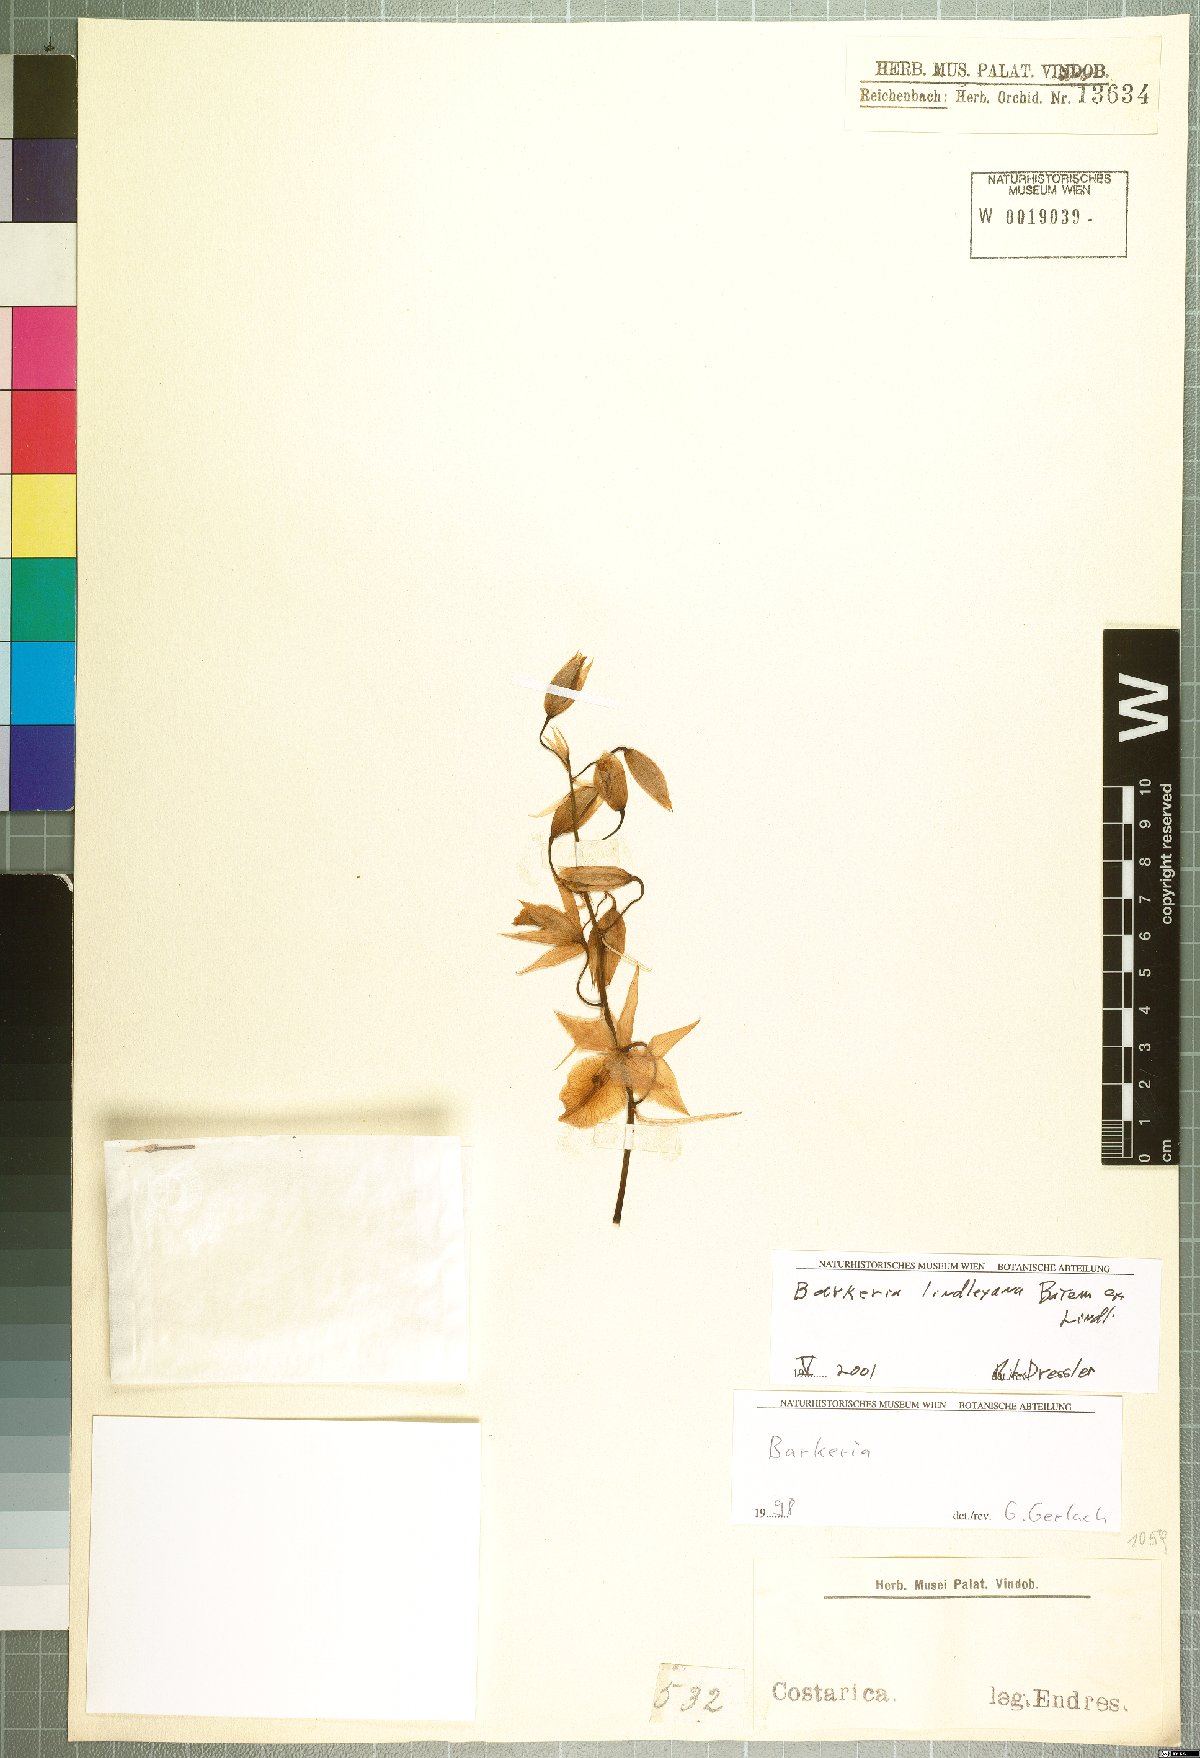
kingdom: Plantae
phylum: Tracheophyta
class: Liliopsida
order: Asparagales
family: Orchidaceae
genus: Barkeria
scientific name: Barkeria lindleyana
